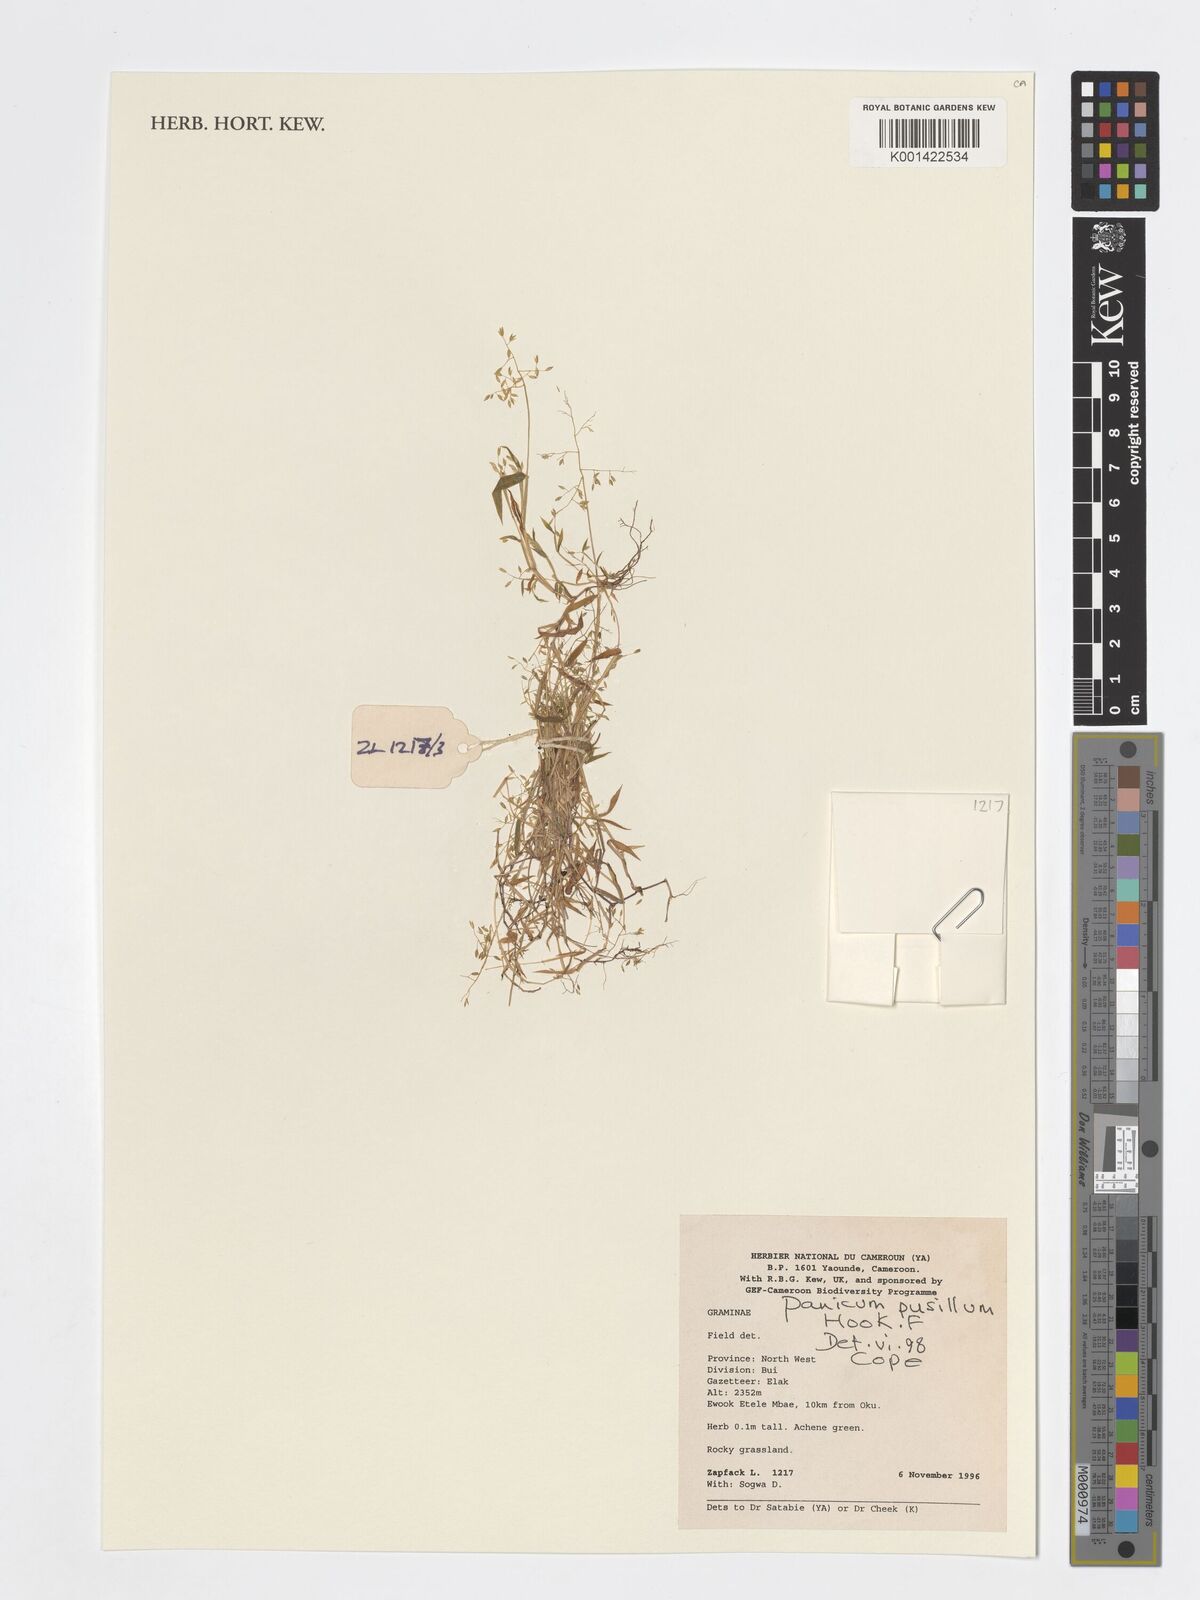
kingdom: Plantae
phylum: Tracheophyta
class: Liliopsida
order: Poales
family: Poaceae
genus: Panicum
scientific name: Panicum pusillum
